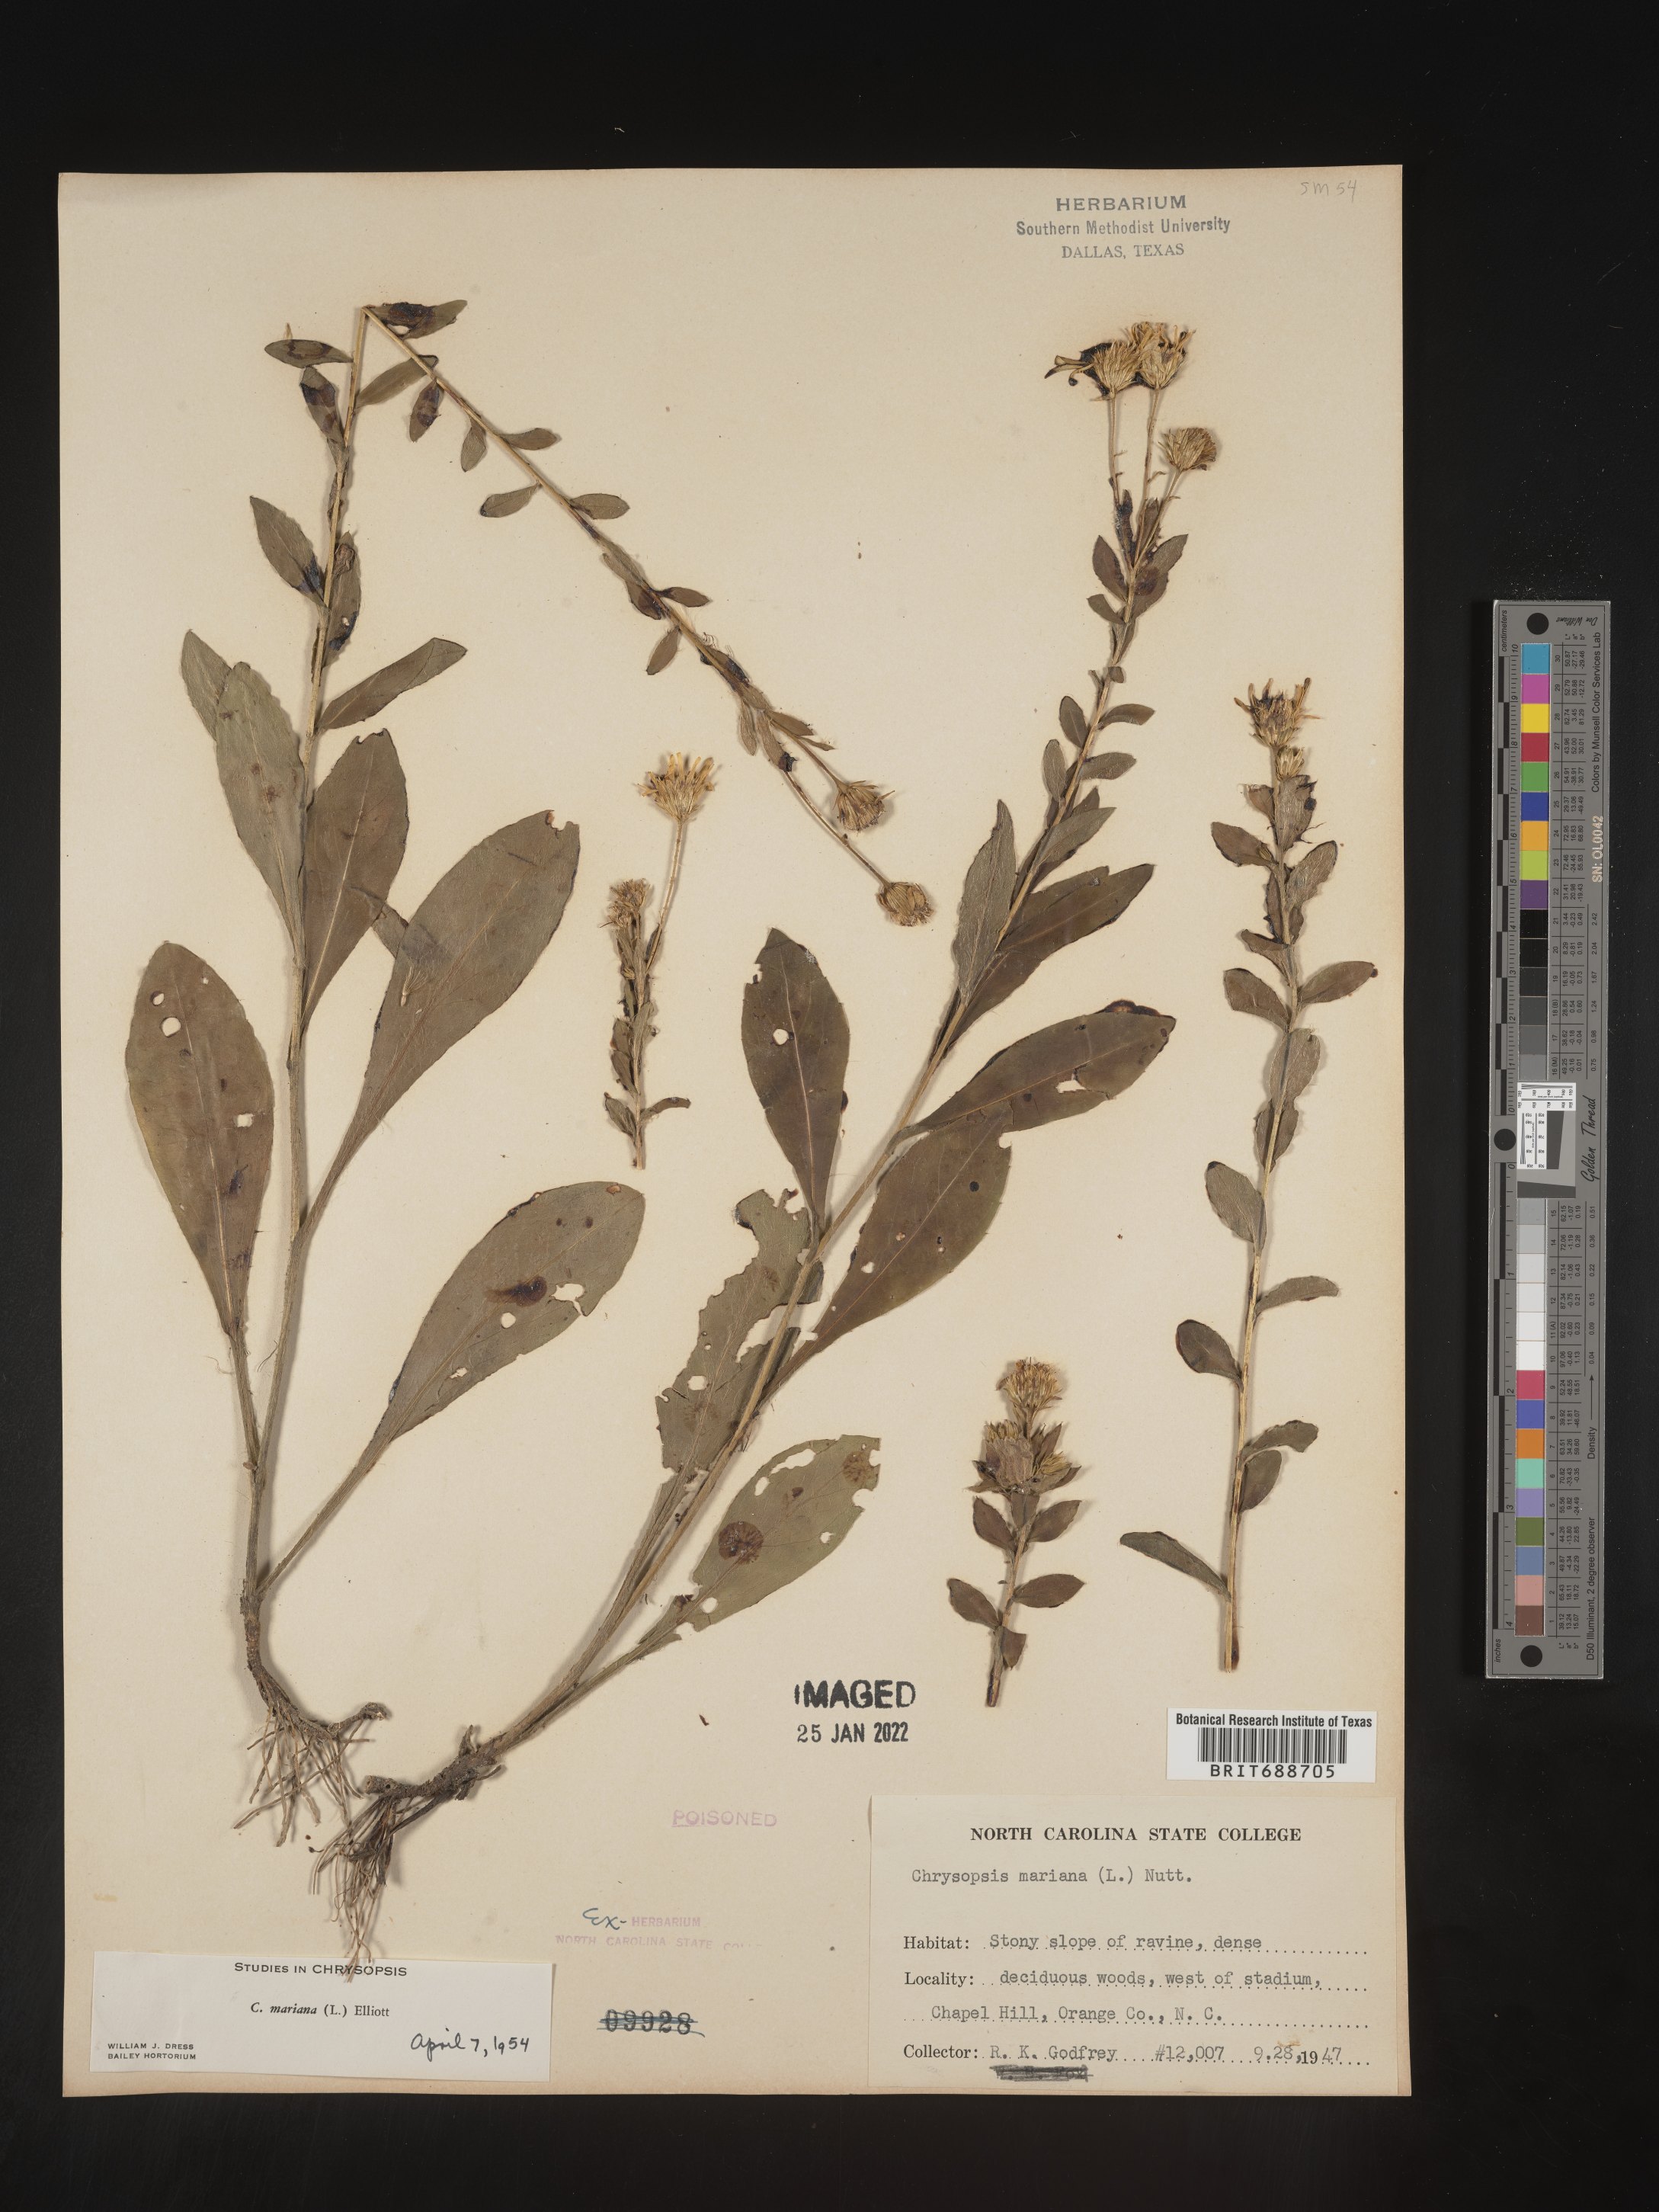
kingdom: Plantae
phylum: Tracheophyta
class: Magnoliopsida
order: Asterales
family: Asteraceae
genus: Chrysopsis
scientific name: Chrysopsis mariana
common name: Maryland golden-aster
